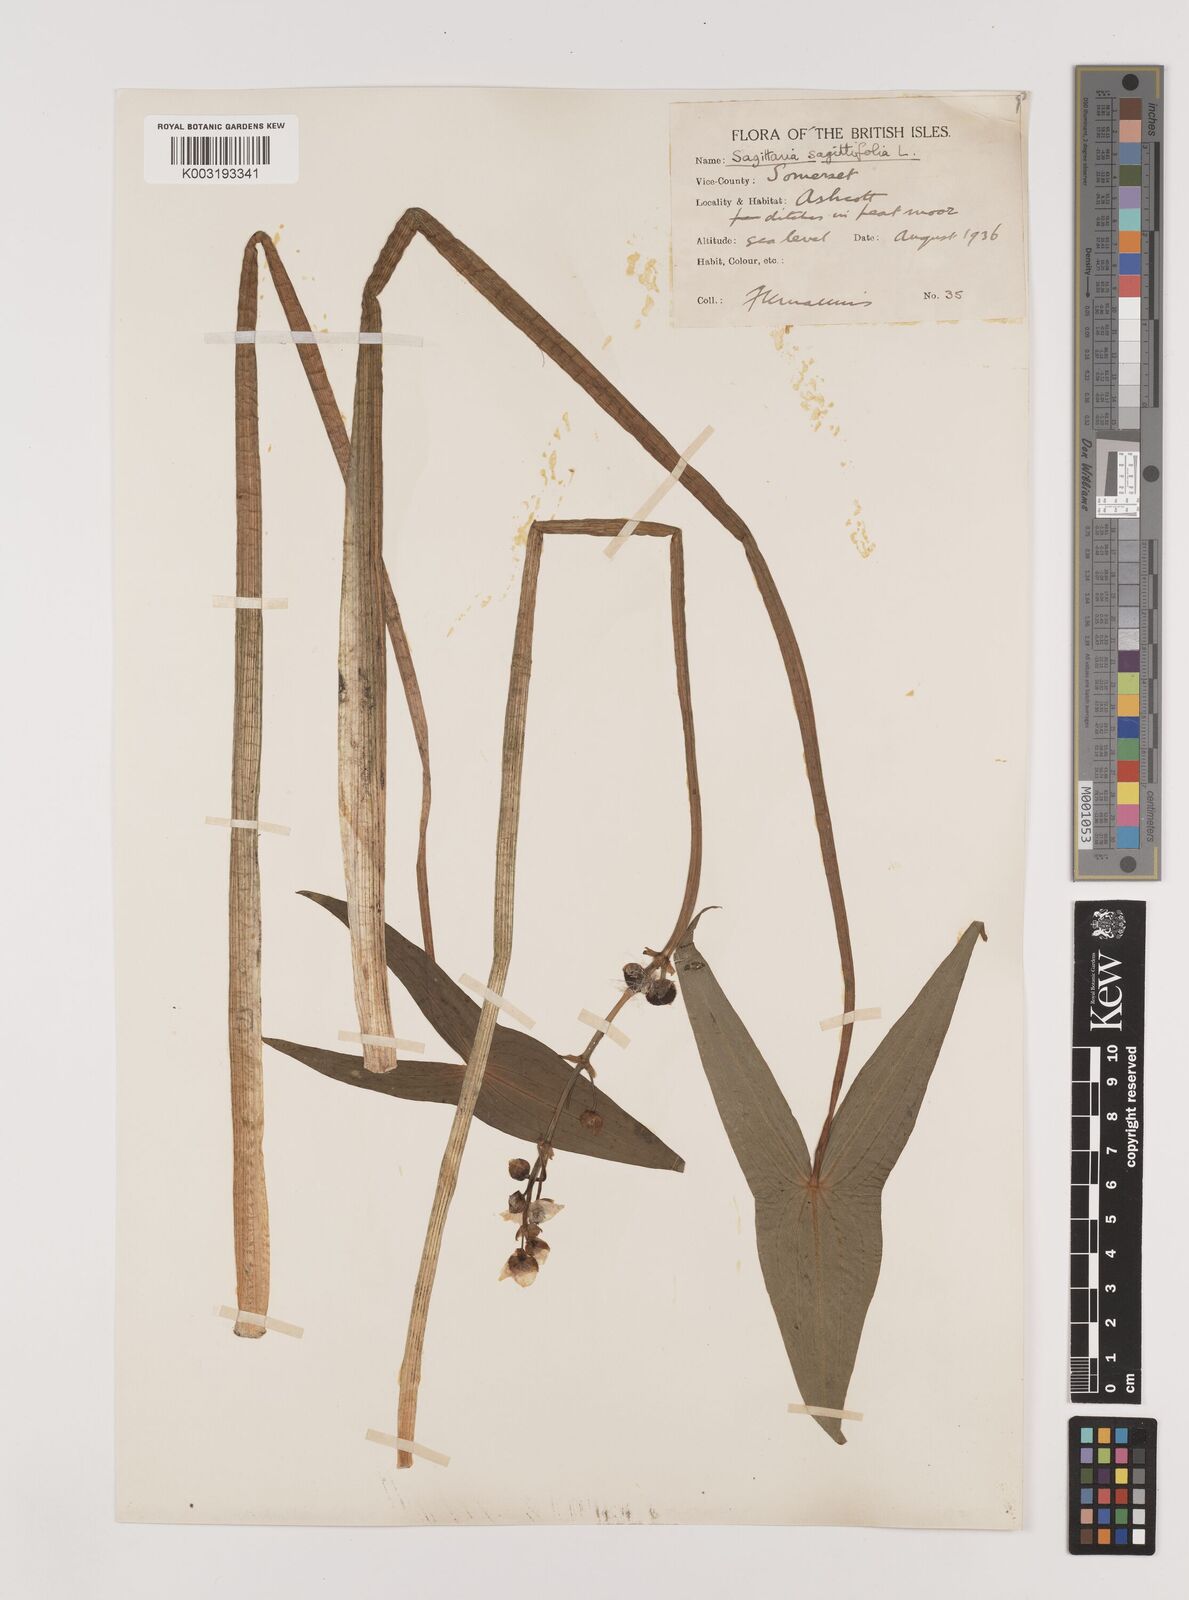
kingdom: Plantae
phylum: Tracheophyta
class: Liliopsida
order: Alismatales
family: Alismataceae
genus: Sagittaria
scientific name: Sagittaria sagittifolia
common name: Arrowhead
